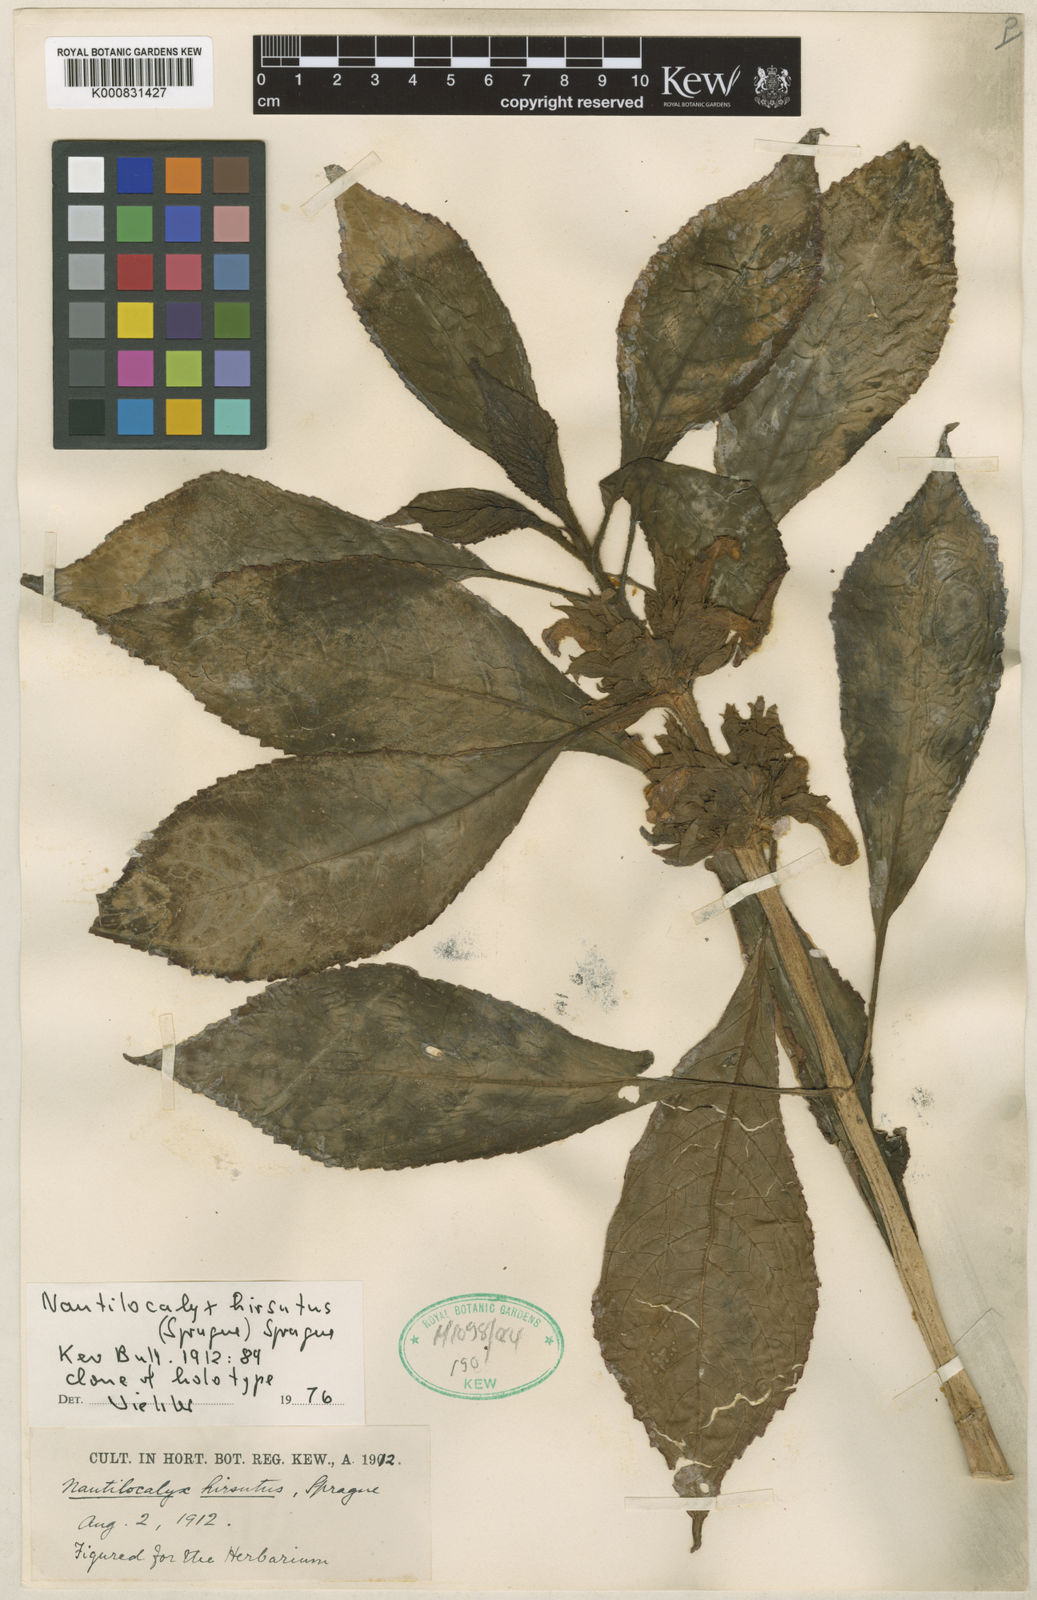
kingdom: Plantae
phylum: Tracheophyta
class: Magnoliopsida
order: Lamiales
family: Gesneriaceae
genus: Nautilocalyx
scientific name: Nautilocalyx hirsutus
